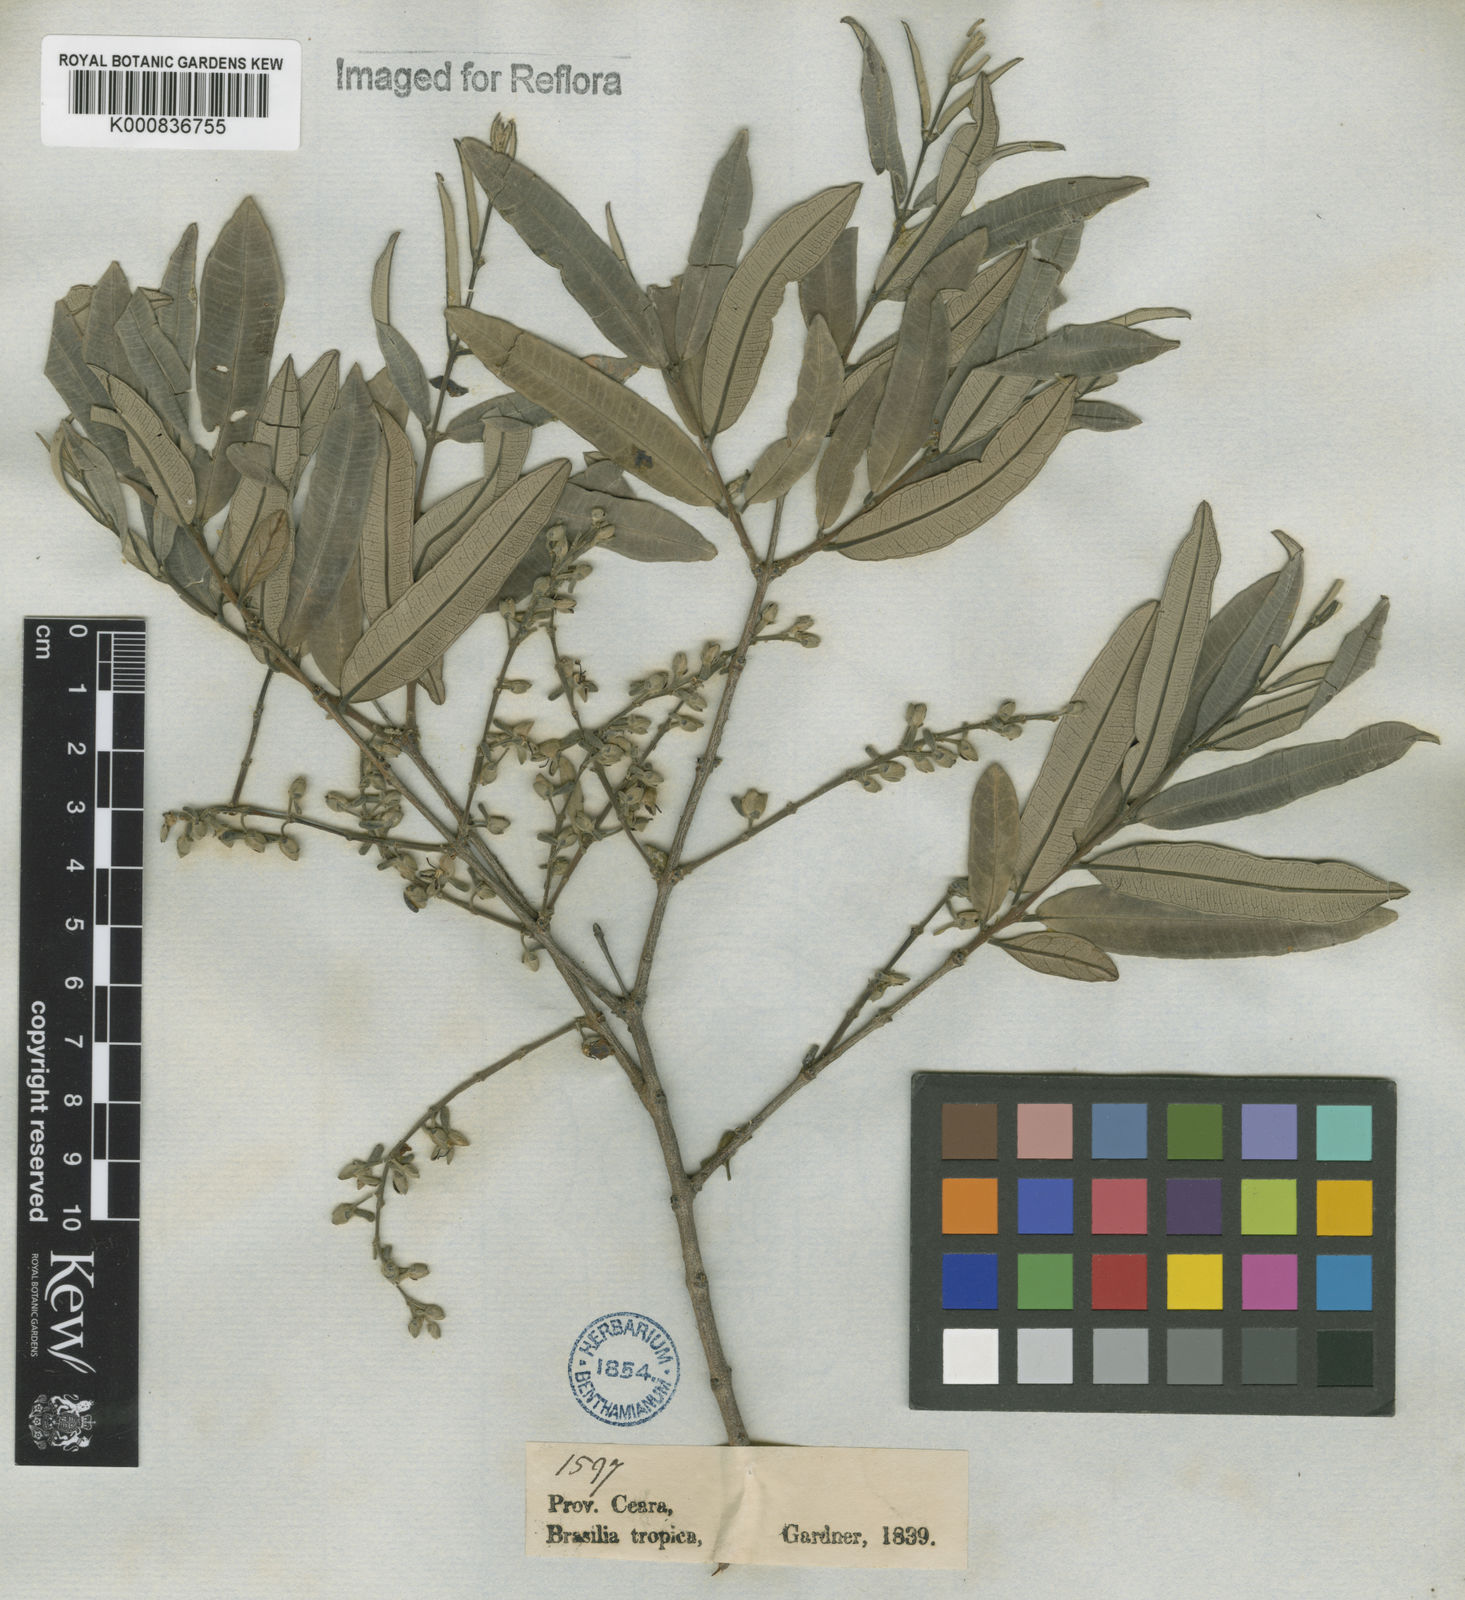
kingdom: Plantae
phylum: Tracheophyta
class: Magnoliopsida
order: Myrtales
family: Vochysiaceae
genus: Qualea
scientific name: Qualea parviflora
